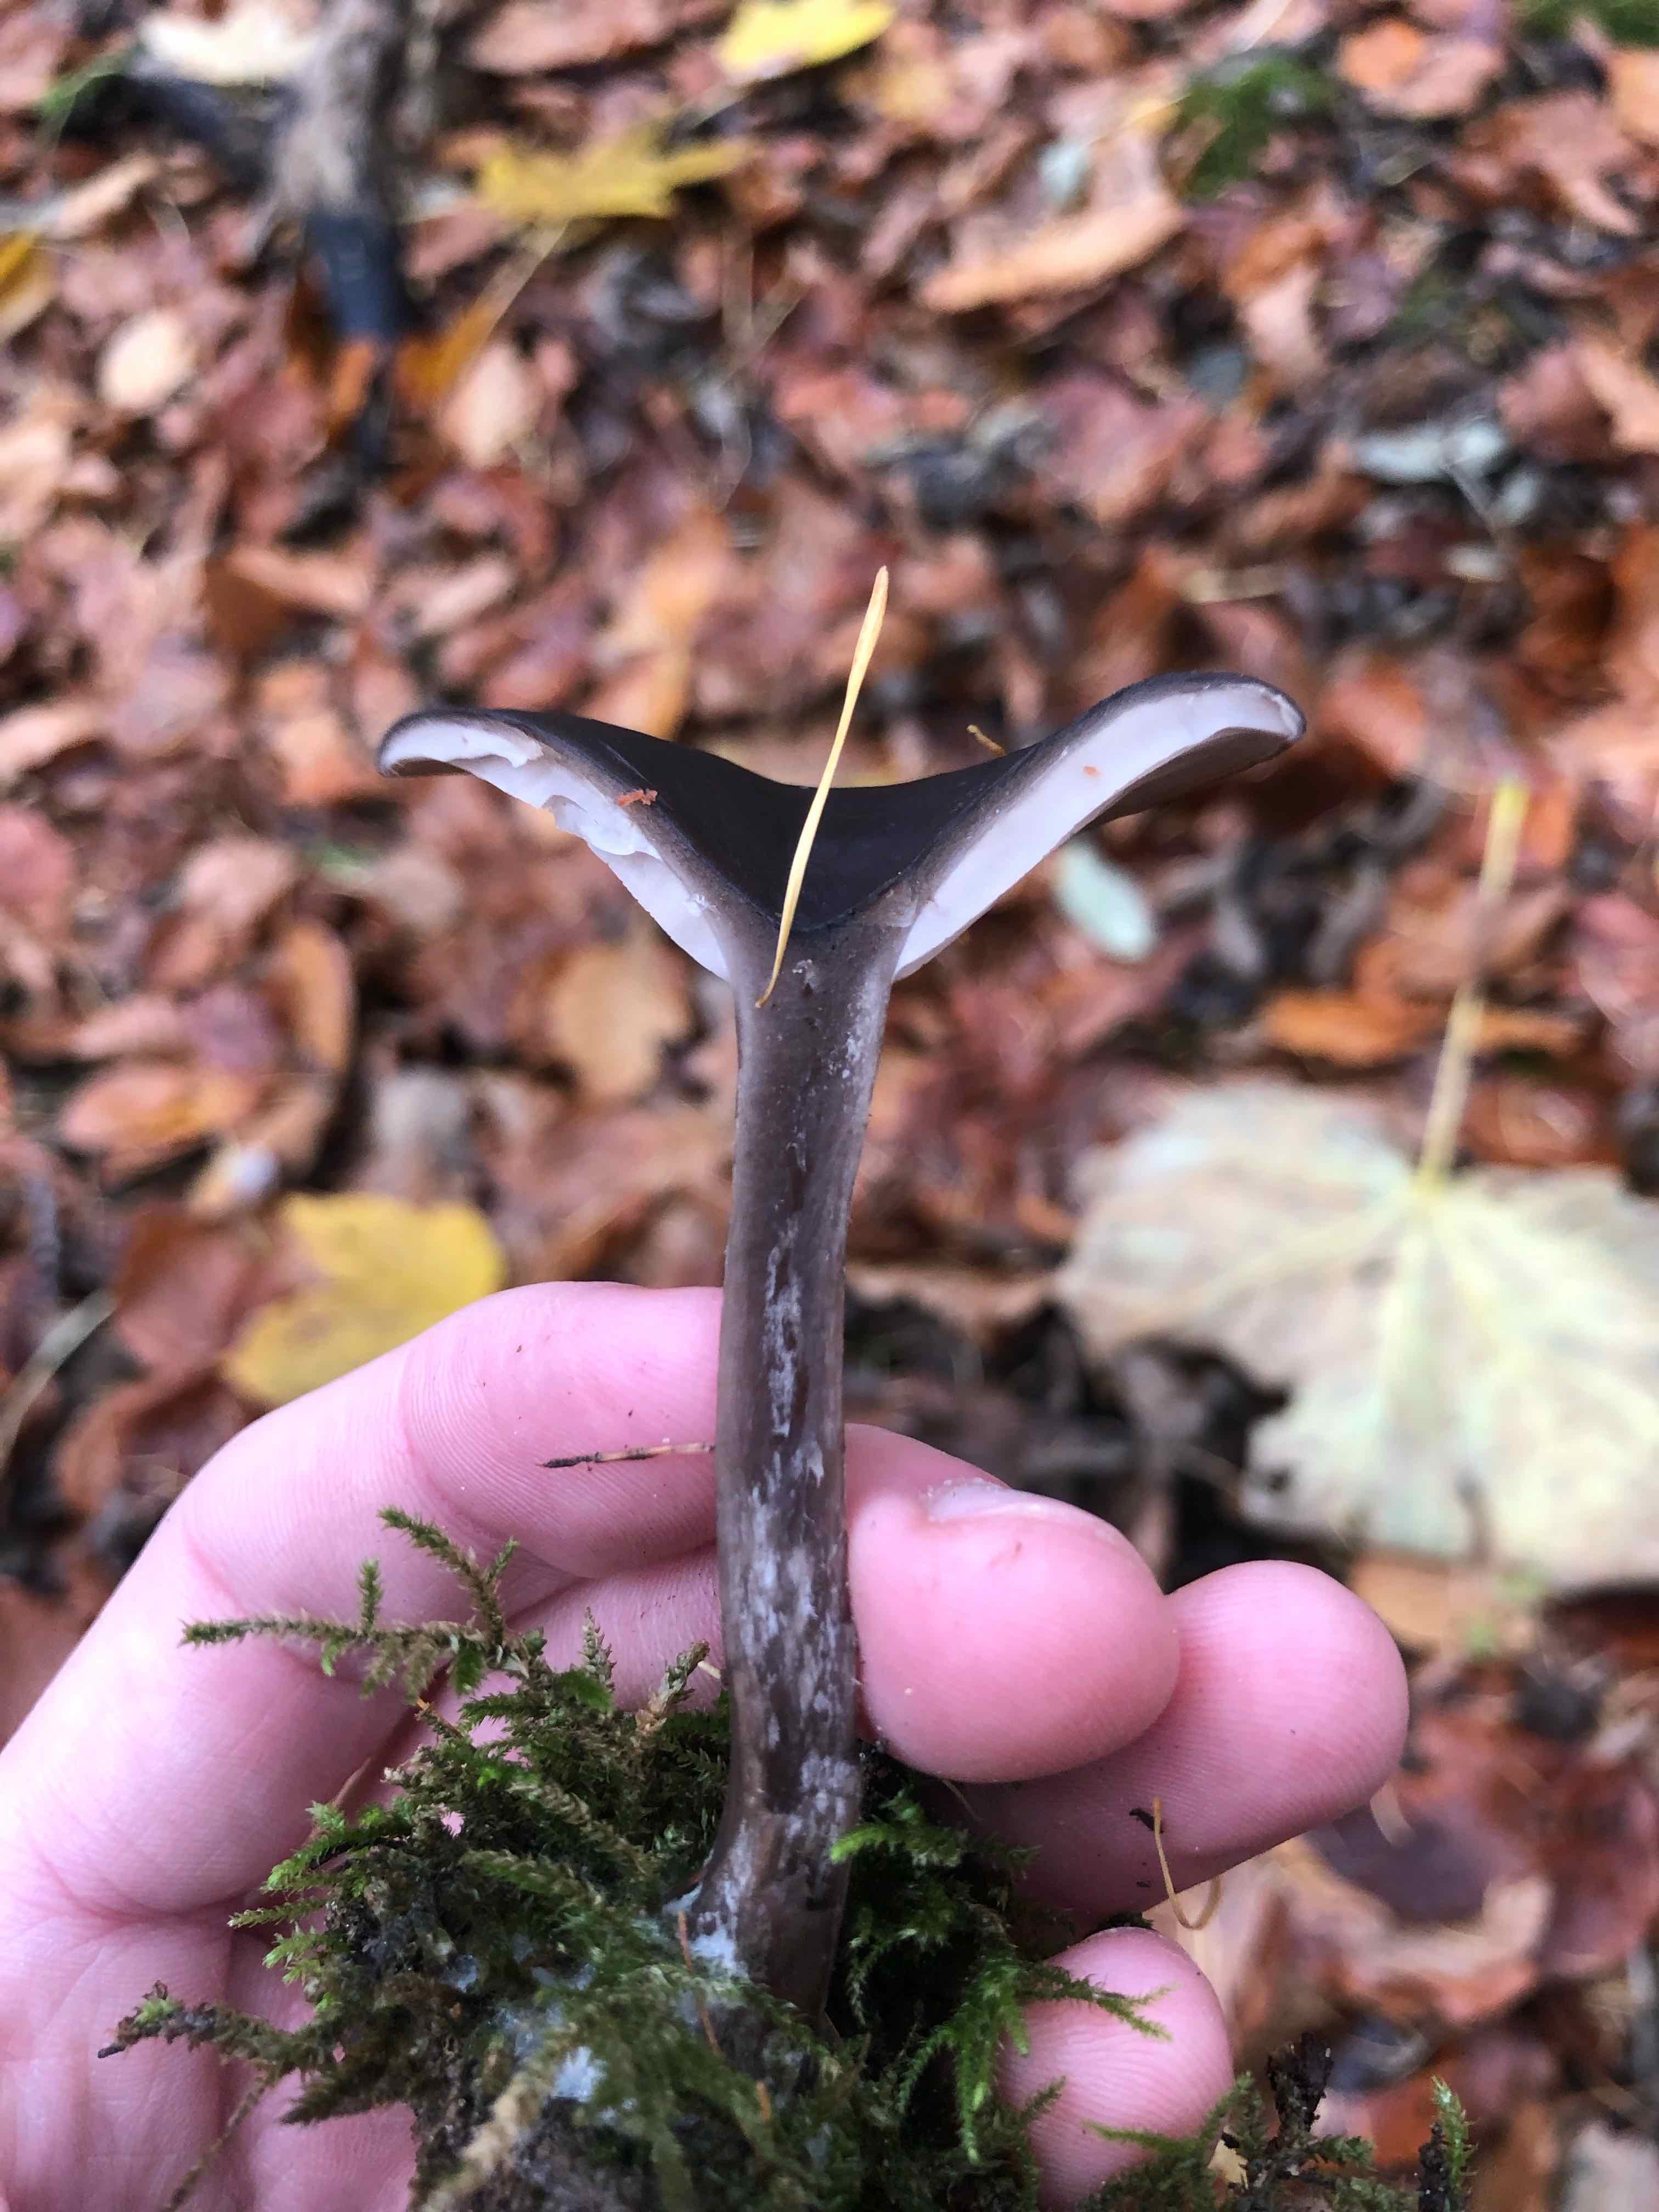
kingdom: Fungi
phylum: Basidiomycota
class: Agaricomycetes
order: Agaricales
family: Pseudoclitocybaceae
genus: Pseudoclitocybe
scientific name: Pseudoclitocybe cyathiformis
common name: almindelig bægertragthat
